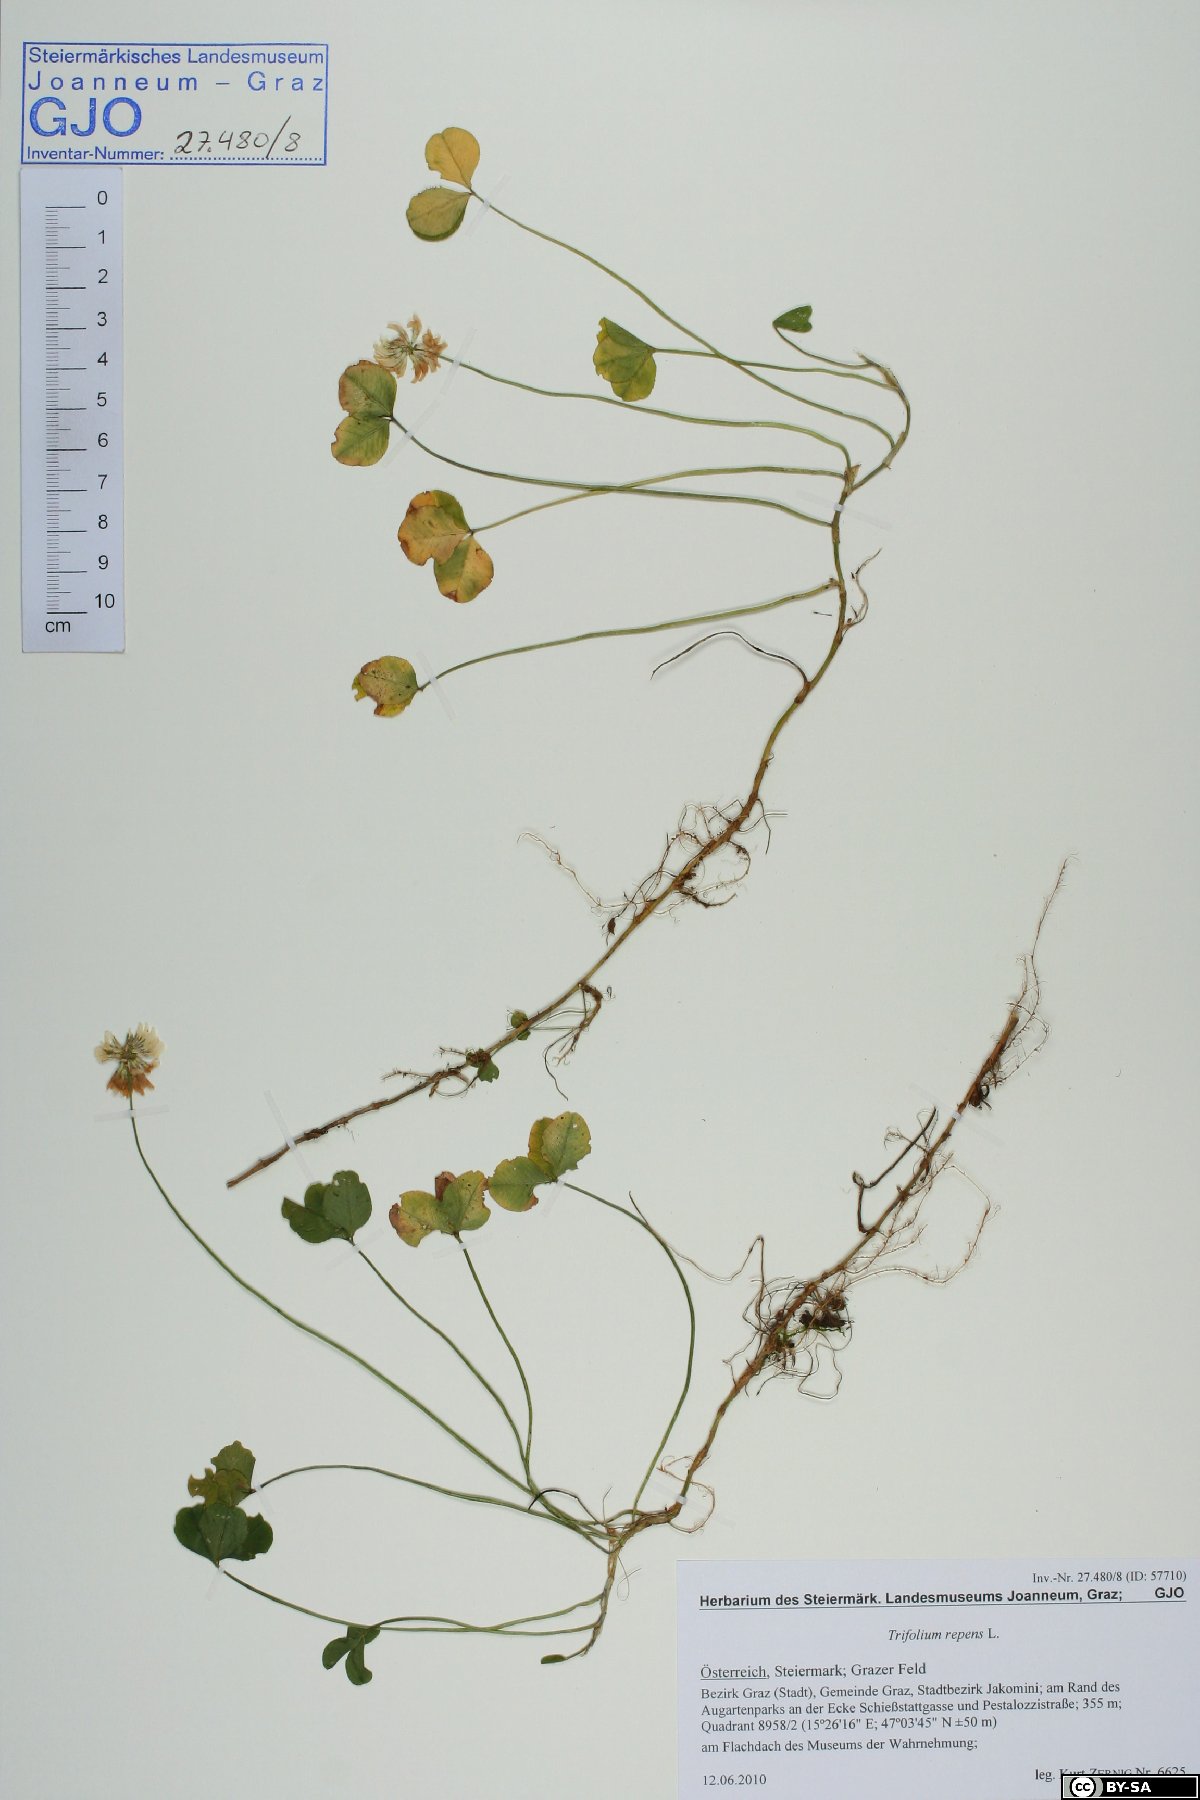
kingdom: Plantae
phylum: Tracheophyta
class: Magnoliopsida
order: Fabales
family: Fabaceae
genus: Trifolium
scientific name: Trifolium repens
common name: White clover
